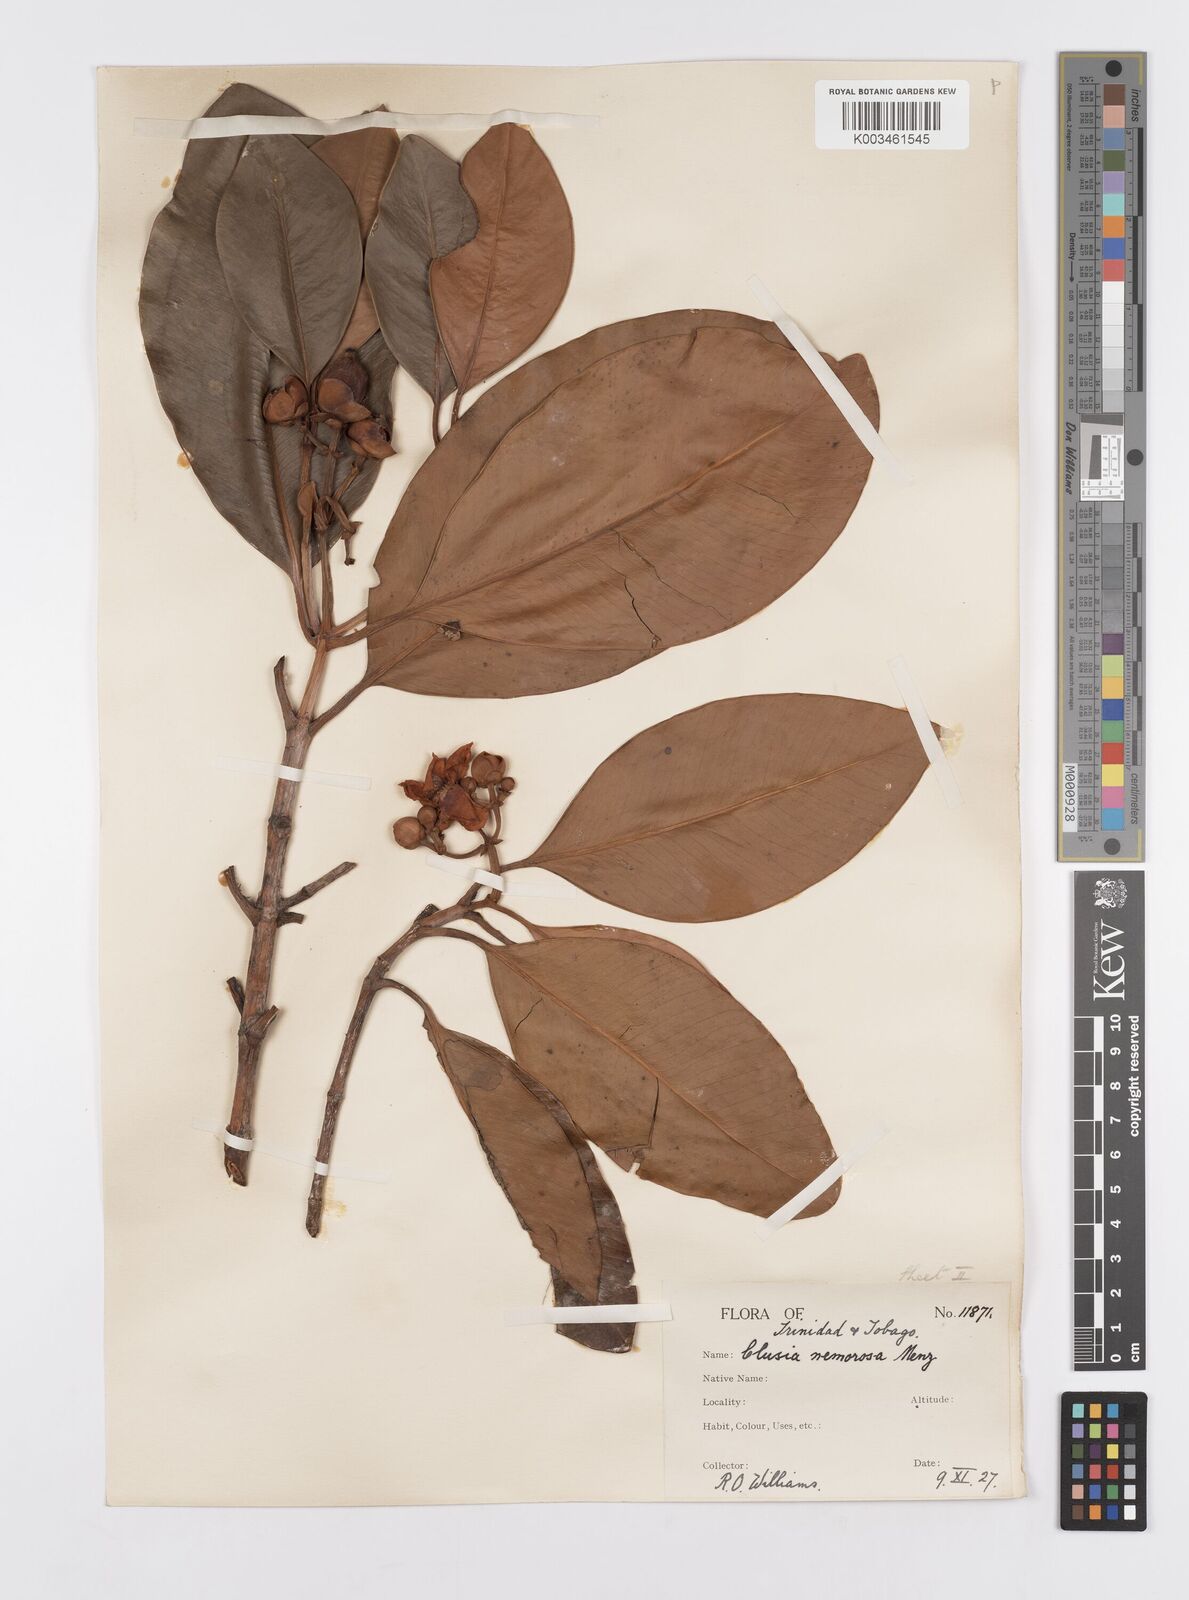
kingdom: Plantae
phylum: Tracheophyta
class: Magnoliopsida
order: Malpighiales
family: Clusiaceae
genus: Clusia
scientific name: Clusia nemorosa
